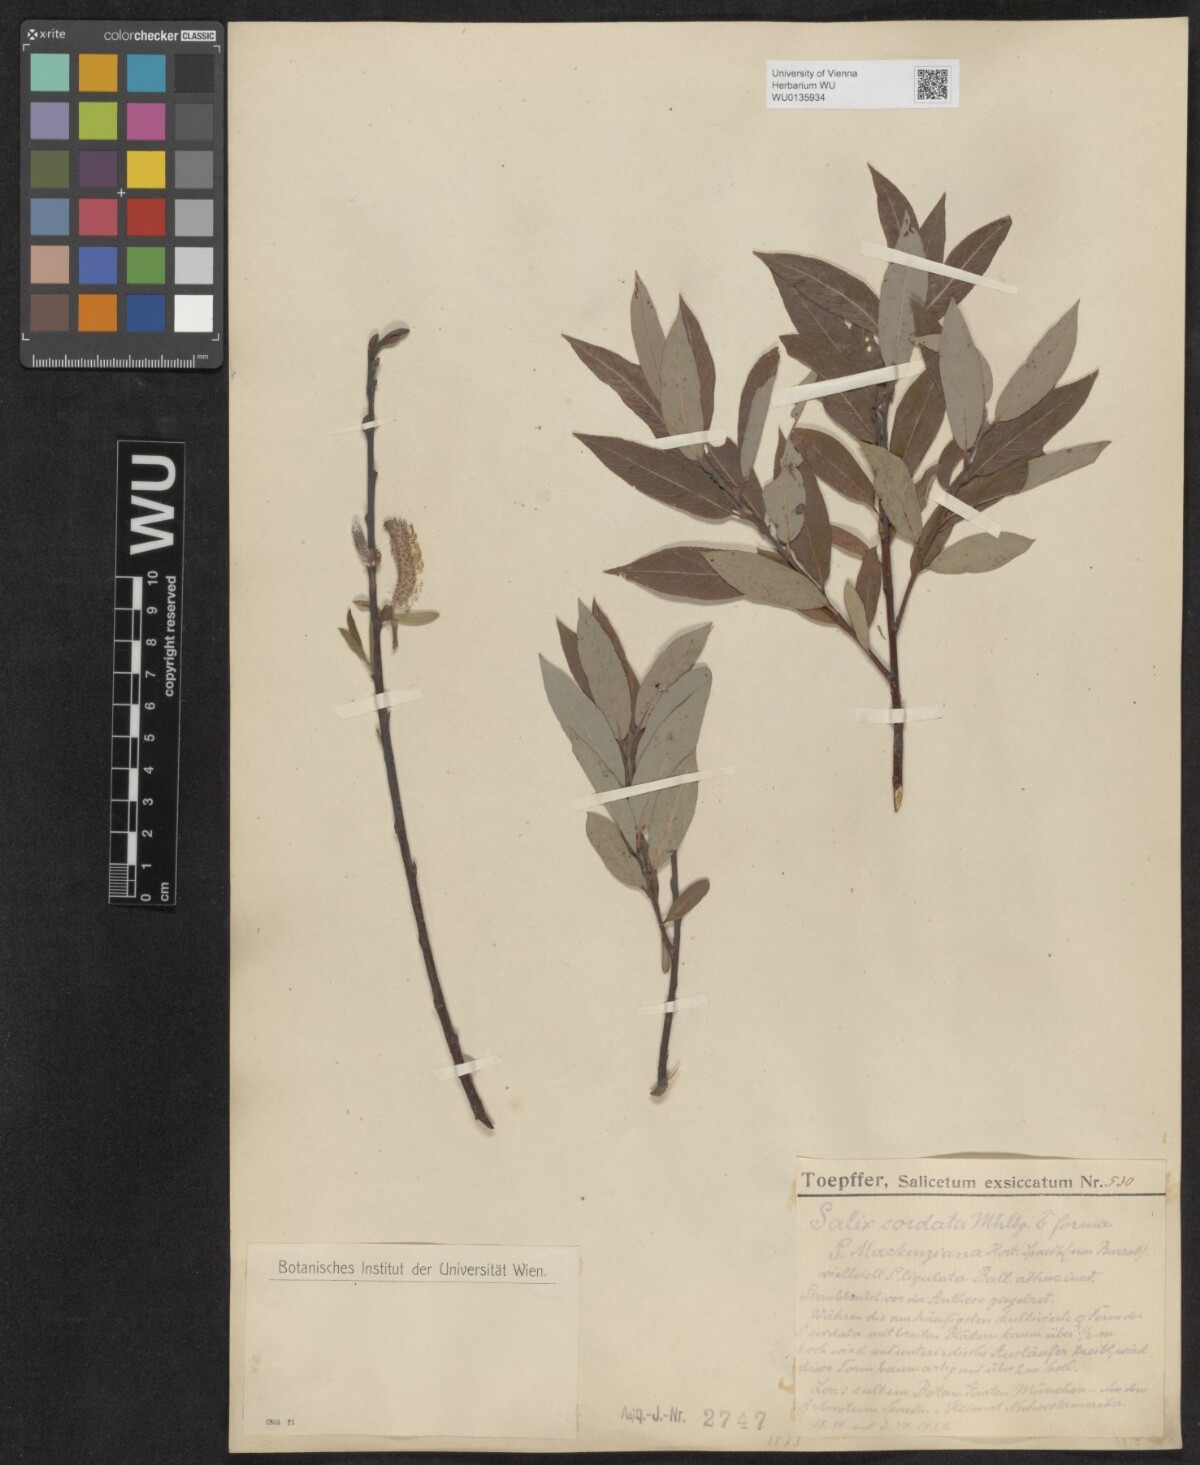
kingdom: Plantae
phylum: Tracheophyta
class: Magnoliopsida
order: Malpighiales
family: Salicaceae
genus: Salix
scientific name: Salix cordata
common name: Heart-leaf willow
